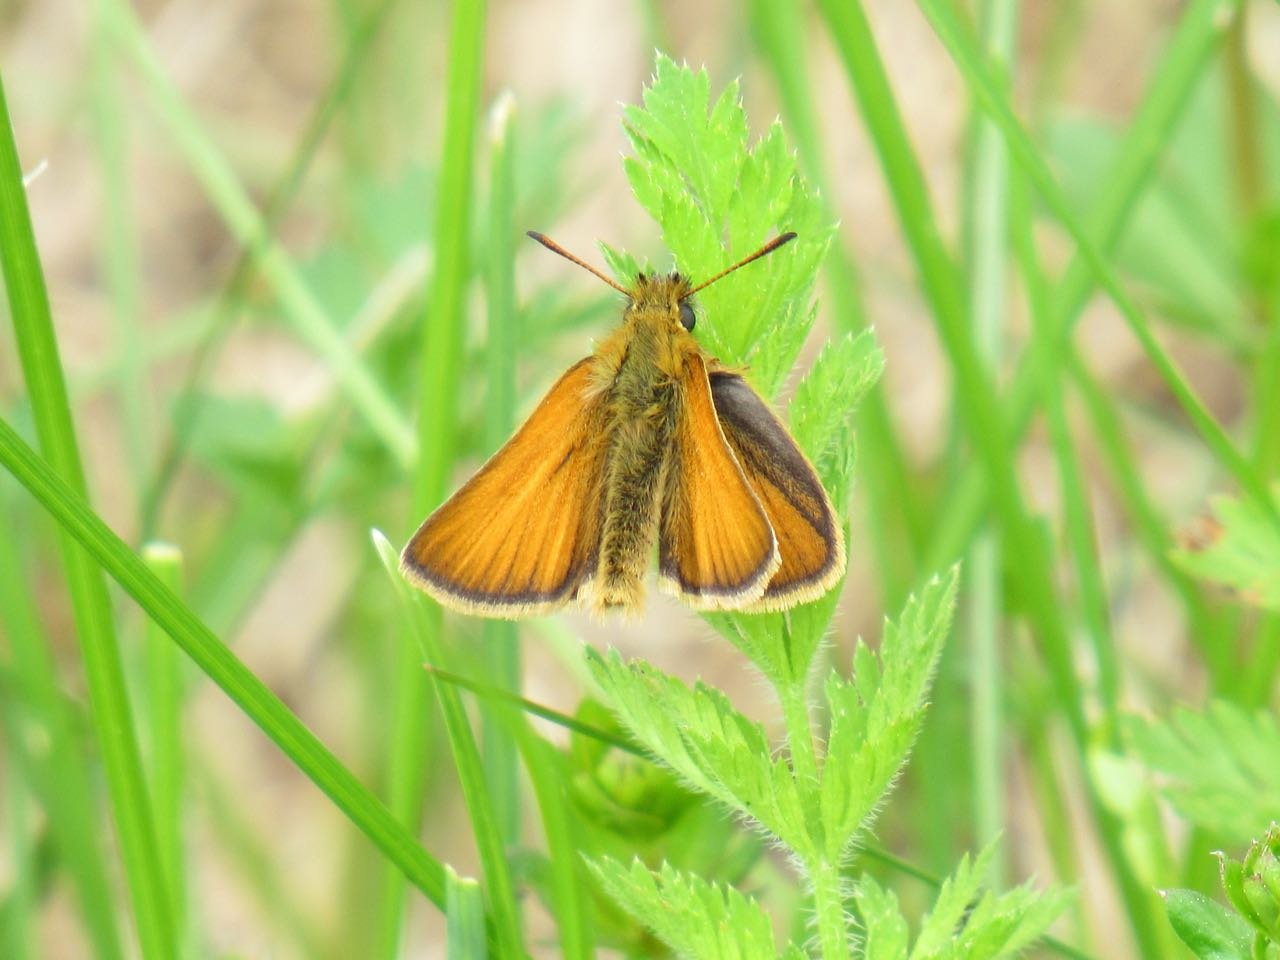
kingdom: Animalia
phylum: Arthropoda
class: Insecta
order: Lepidoptera
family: Hesperiidae
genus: Thymelicus
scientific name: Thymelicus lineola
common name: European Skipper
